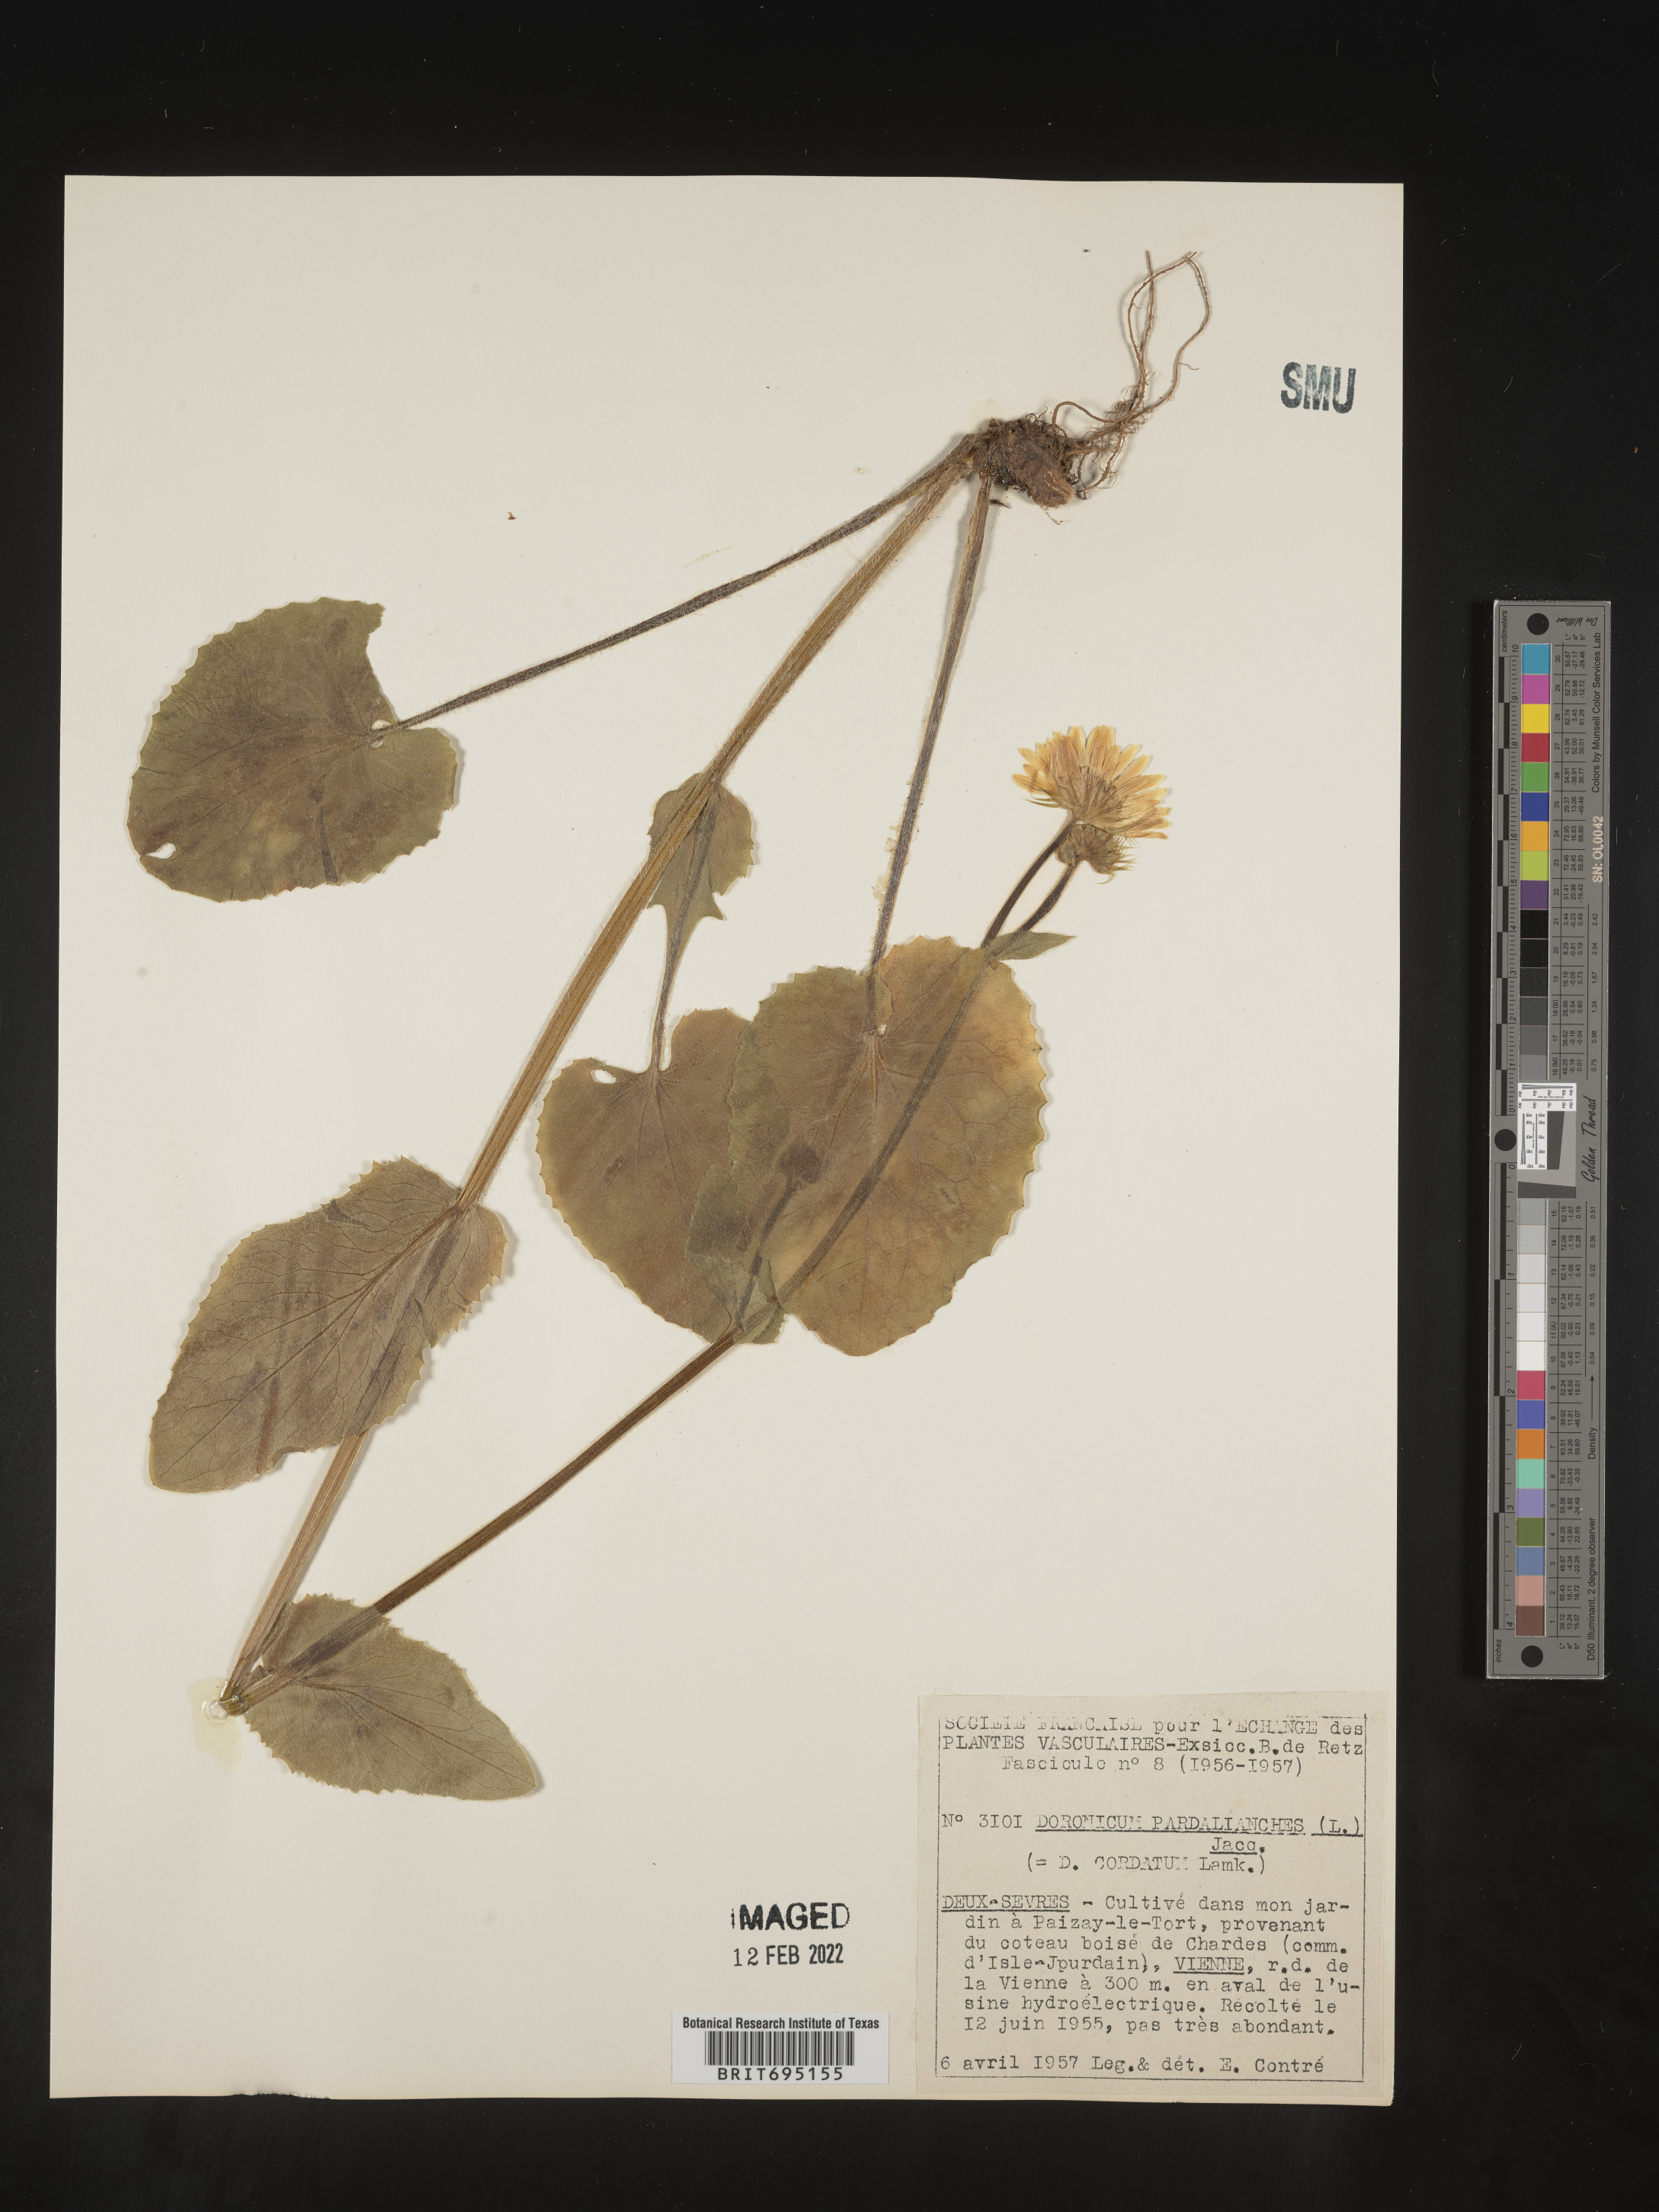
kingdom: Plantae
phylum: Tracheophyta
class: Magnoliopsida
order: Asterales
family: Asteraceae
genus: Doronicum
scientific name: Doronicum
